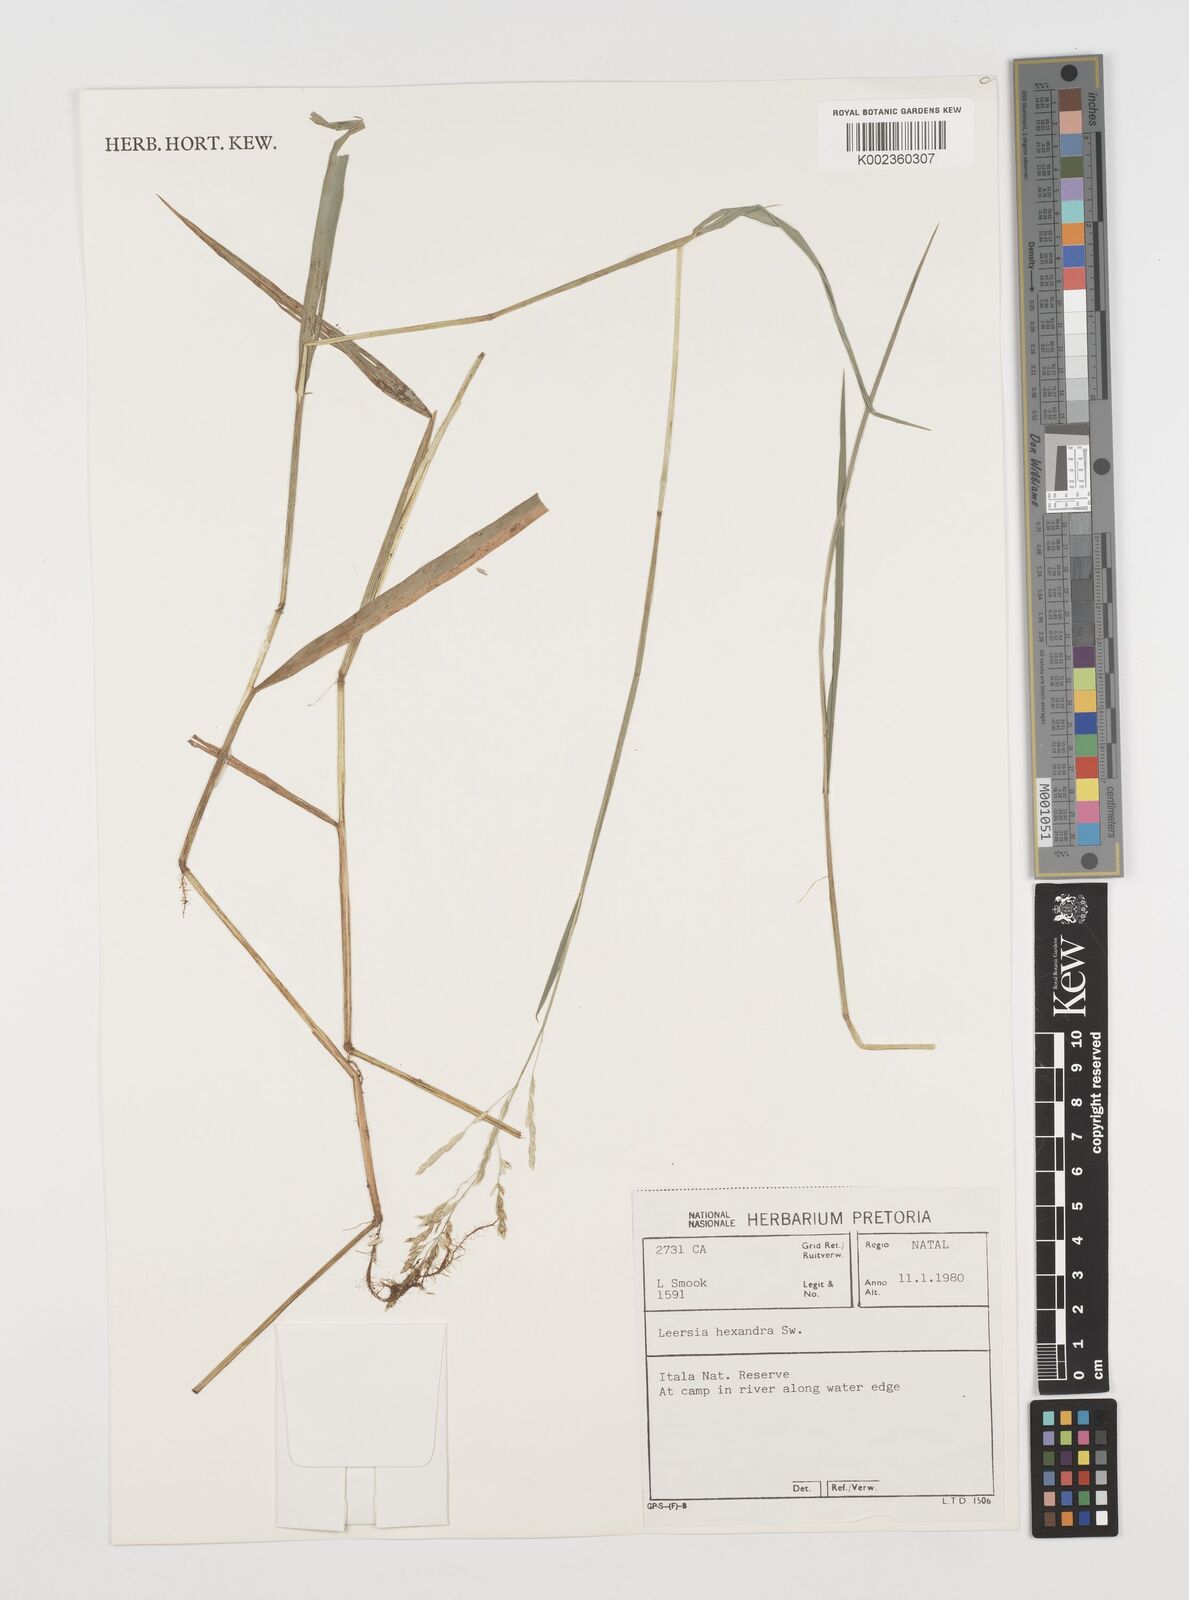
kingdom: Plantae
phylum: Tracheophyta
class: Liliopsida
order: Poales
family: Poaceae
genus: Leersia
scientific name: Leersia hexandra
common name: Southern cut grass
